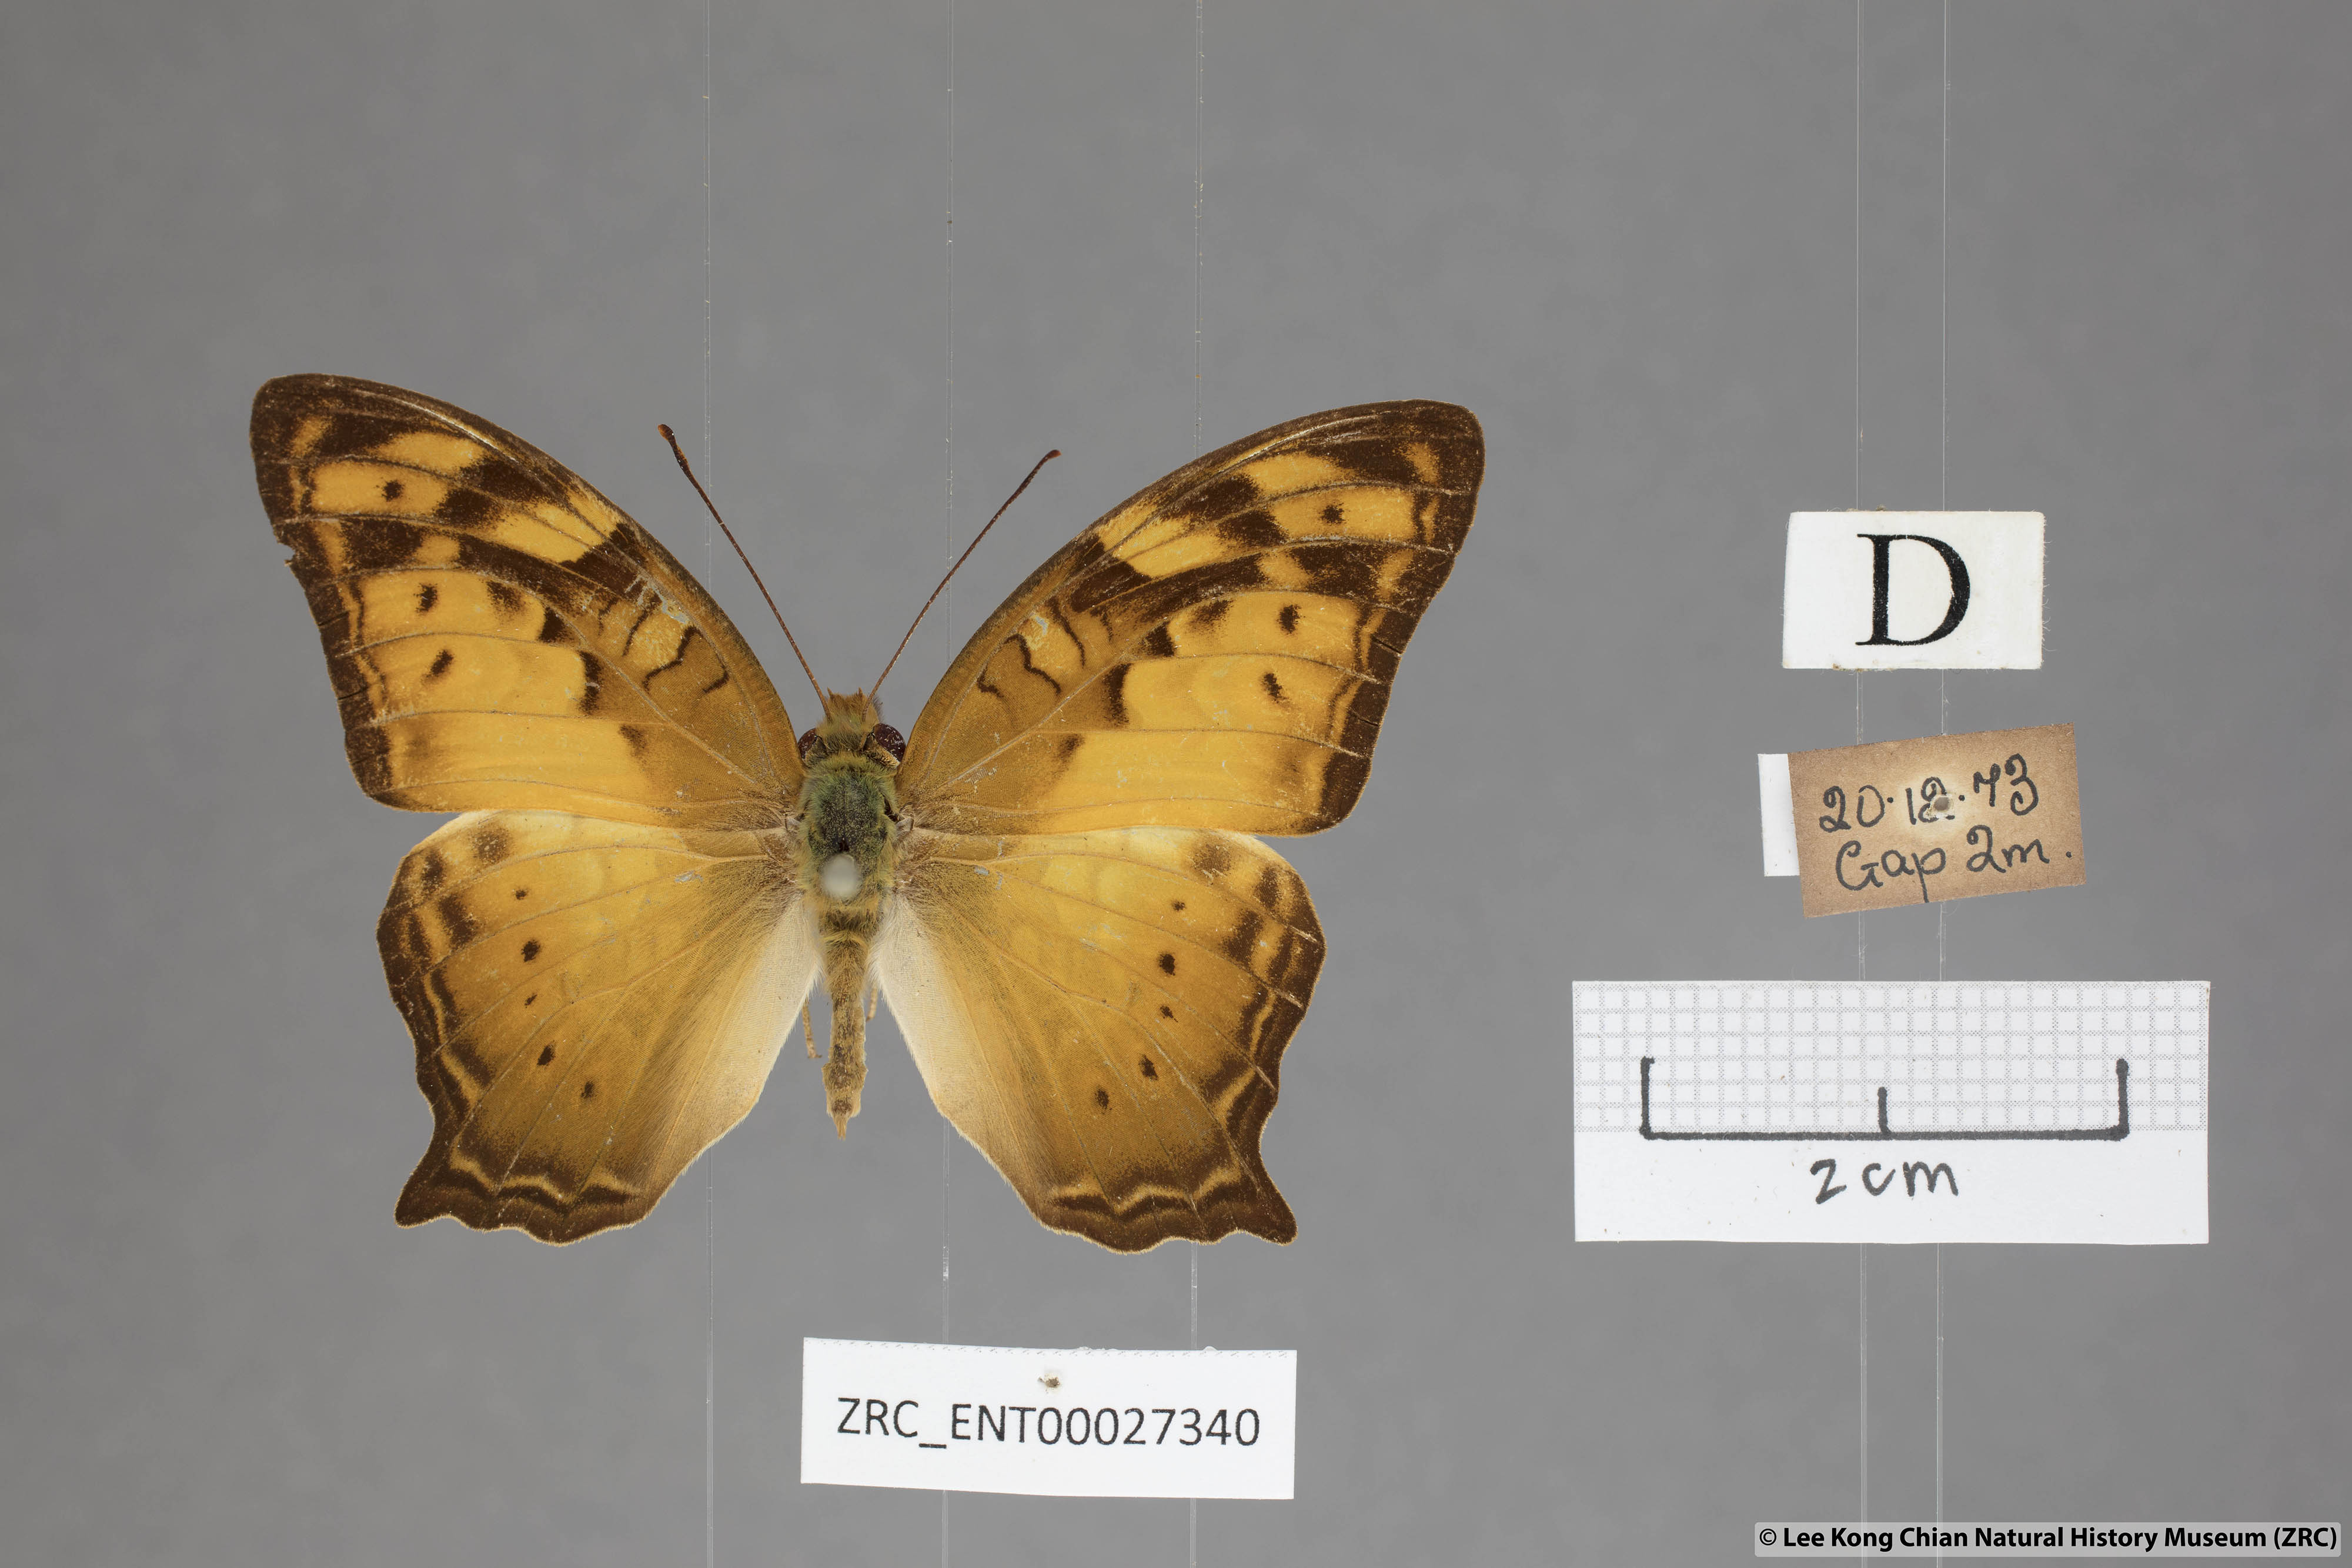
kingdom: Animalia
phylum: Arthropoda
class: Insecta
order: Lepidoptera
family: Nymphalidae
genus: Vagrans
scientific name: Vagrans egista
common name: Tailed rustic
